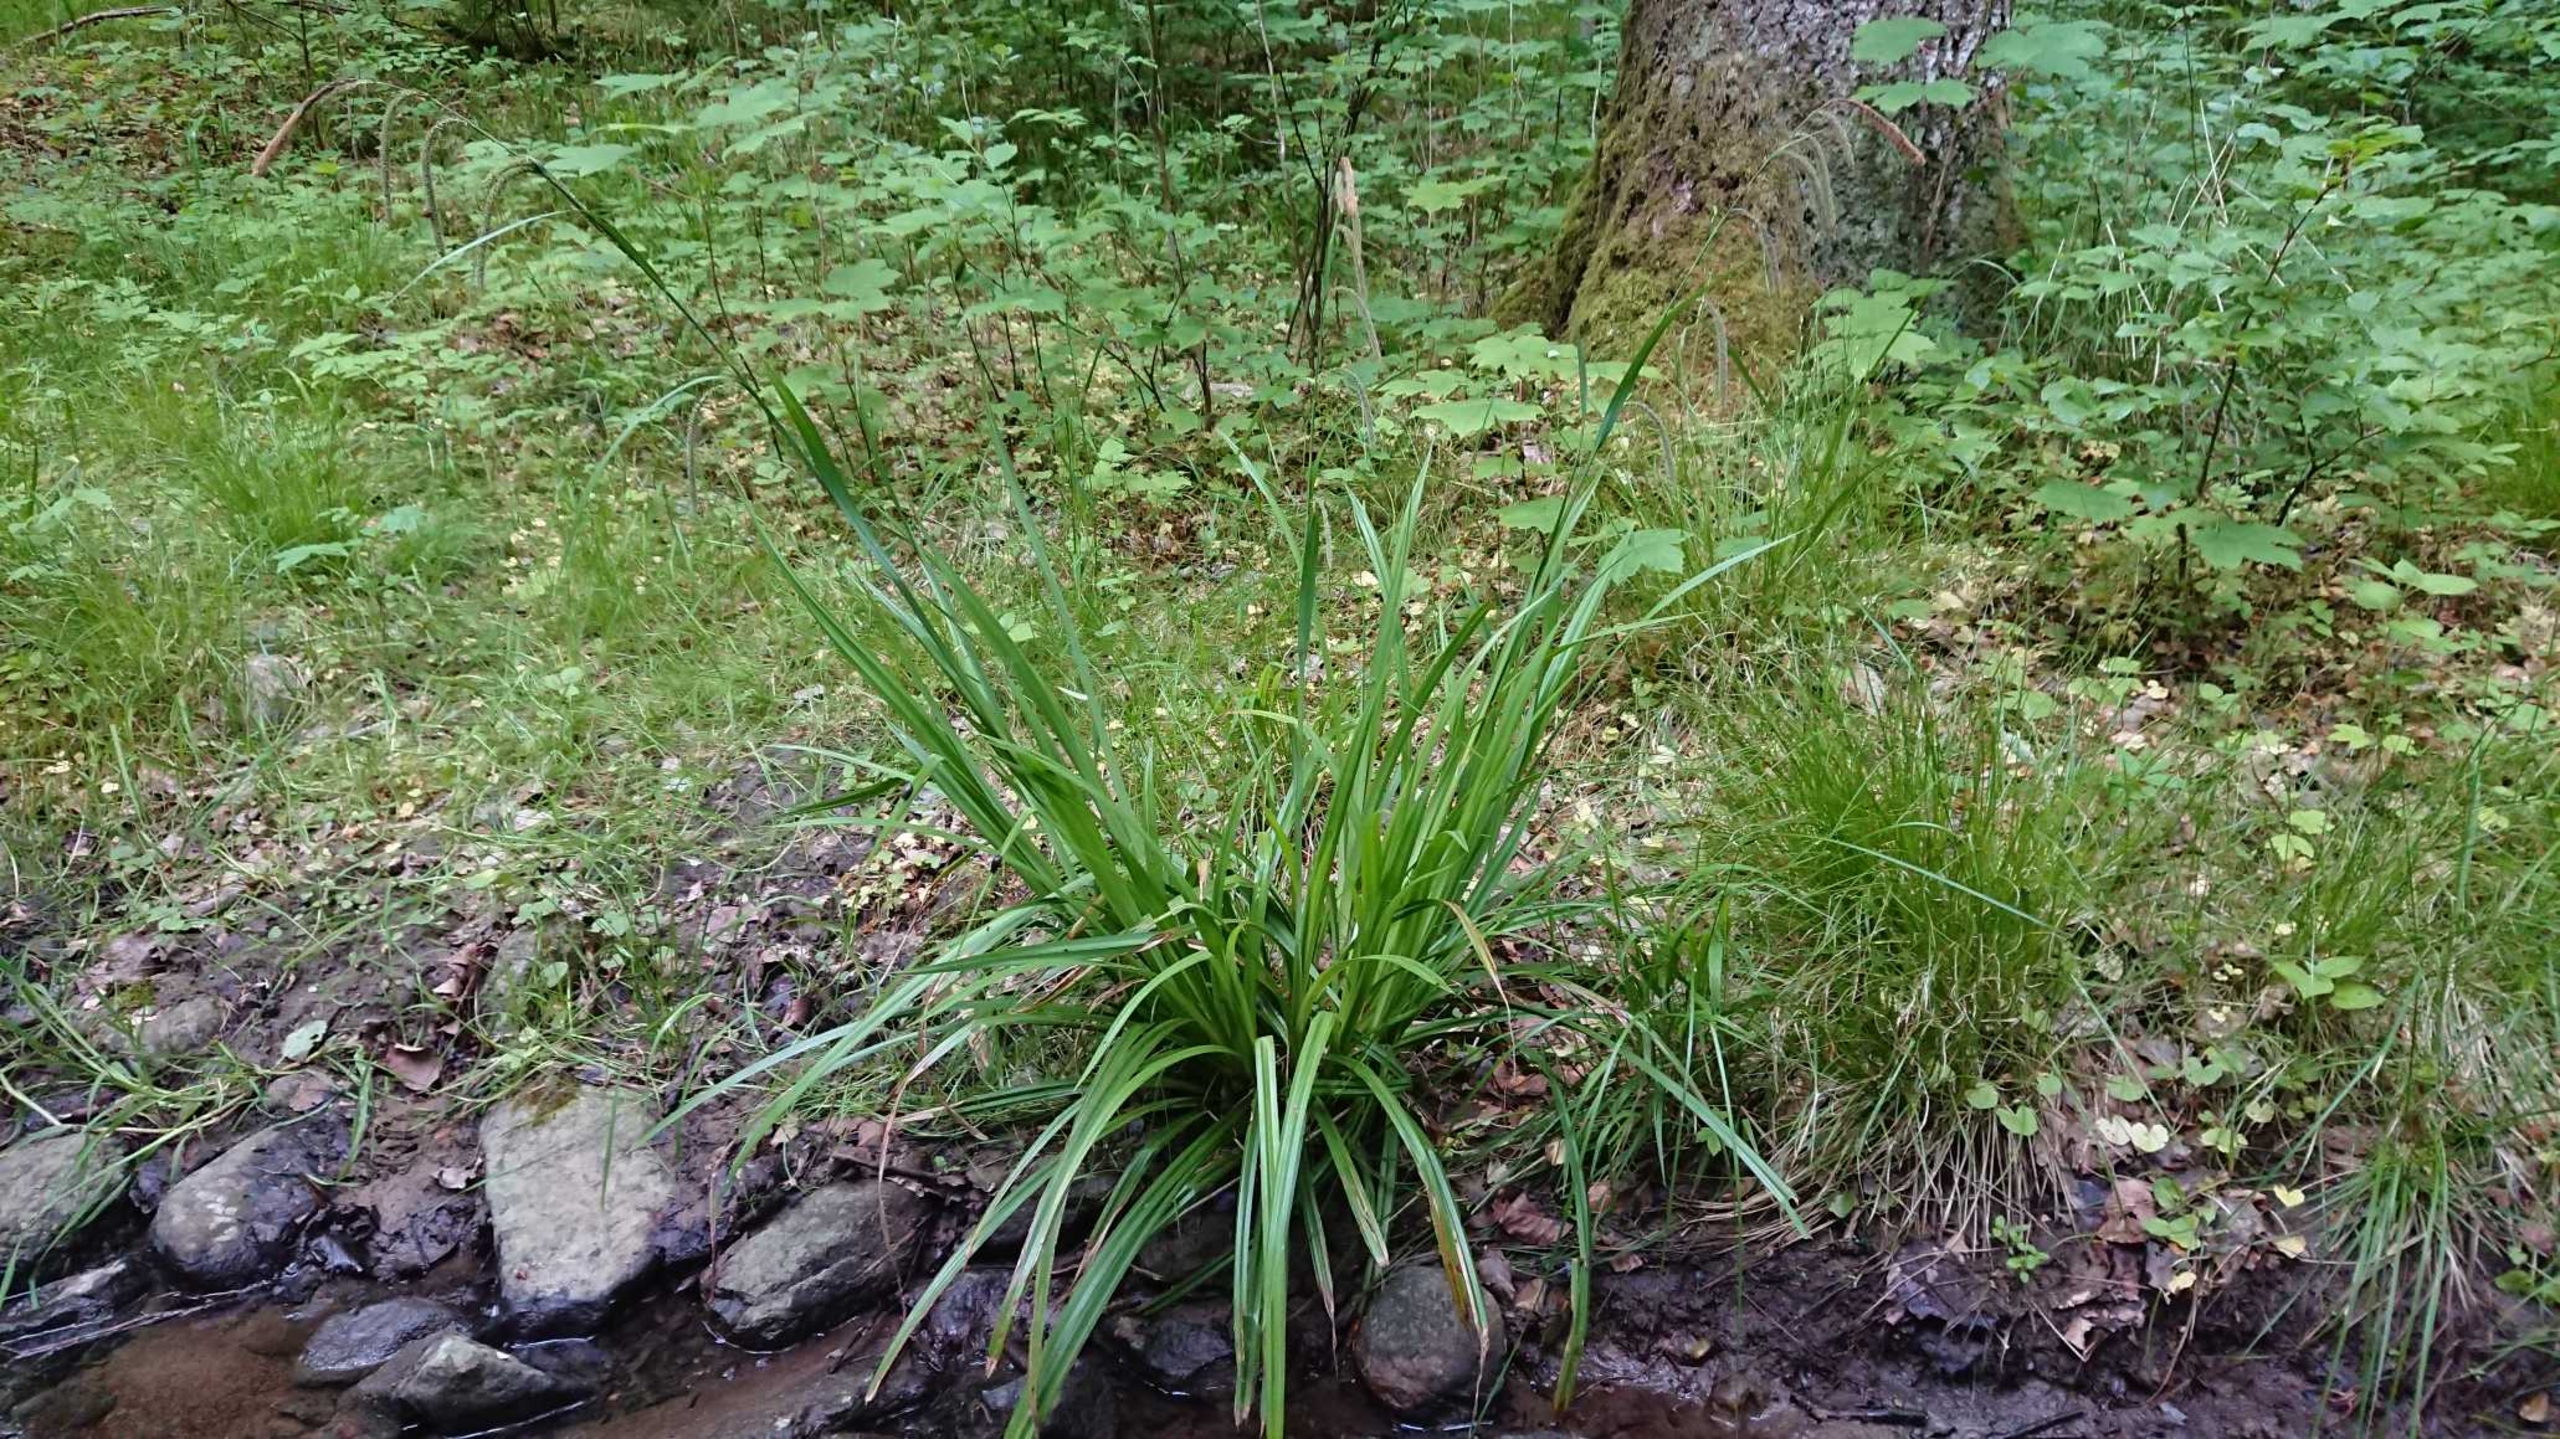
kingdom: Plantae
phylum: Tracheophyta
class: Liliopsida
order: Poales
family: Cyperaceae
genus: Carex
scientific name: Carex pendula
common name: Kæmpe-star
